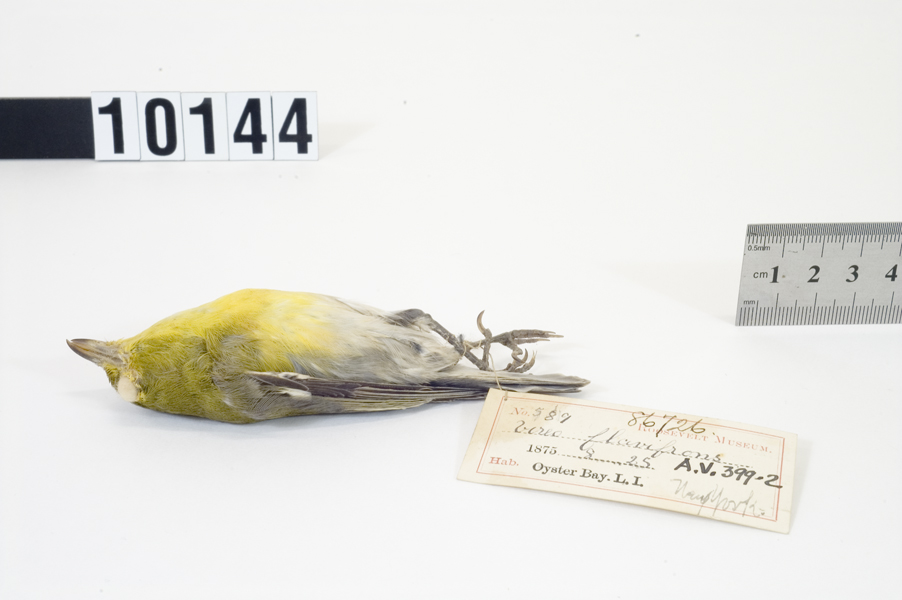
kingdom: Animalia
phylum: Chordata
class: Aves
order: Passeriformes
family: Vireonidae
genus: Vireo
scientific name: Vireo flavifrons
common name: Yellow-throated vireo
